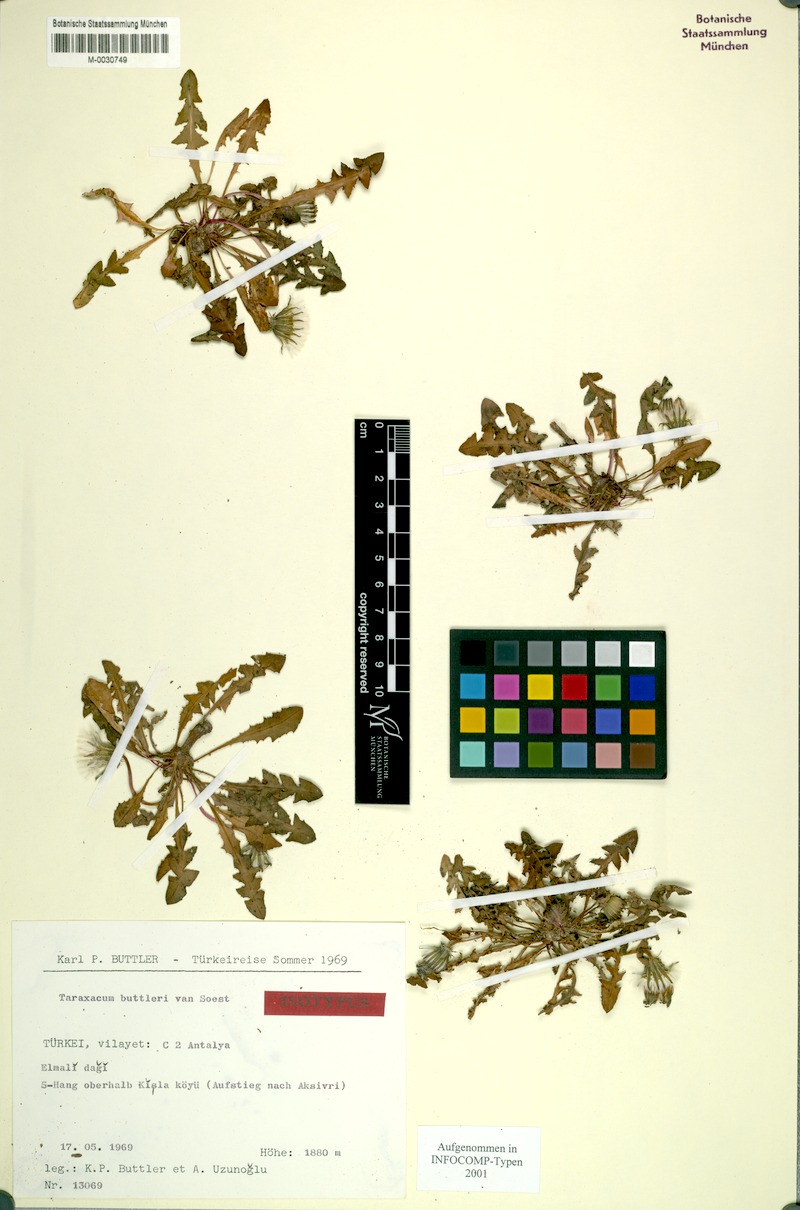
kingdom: Plantae
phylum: Tracheophyta
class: Magnoliopsida
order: Asterales
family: Asteraceae
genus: Taraxacum
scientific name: Taraxacum buttleri
